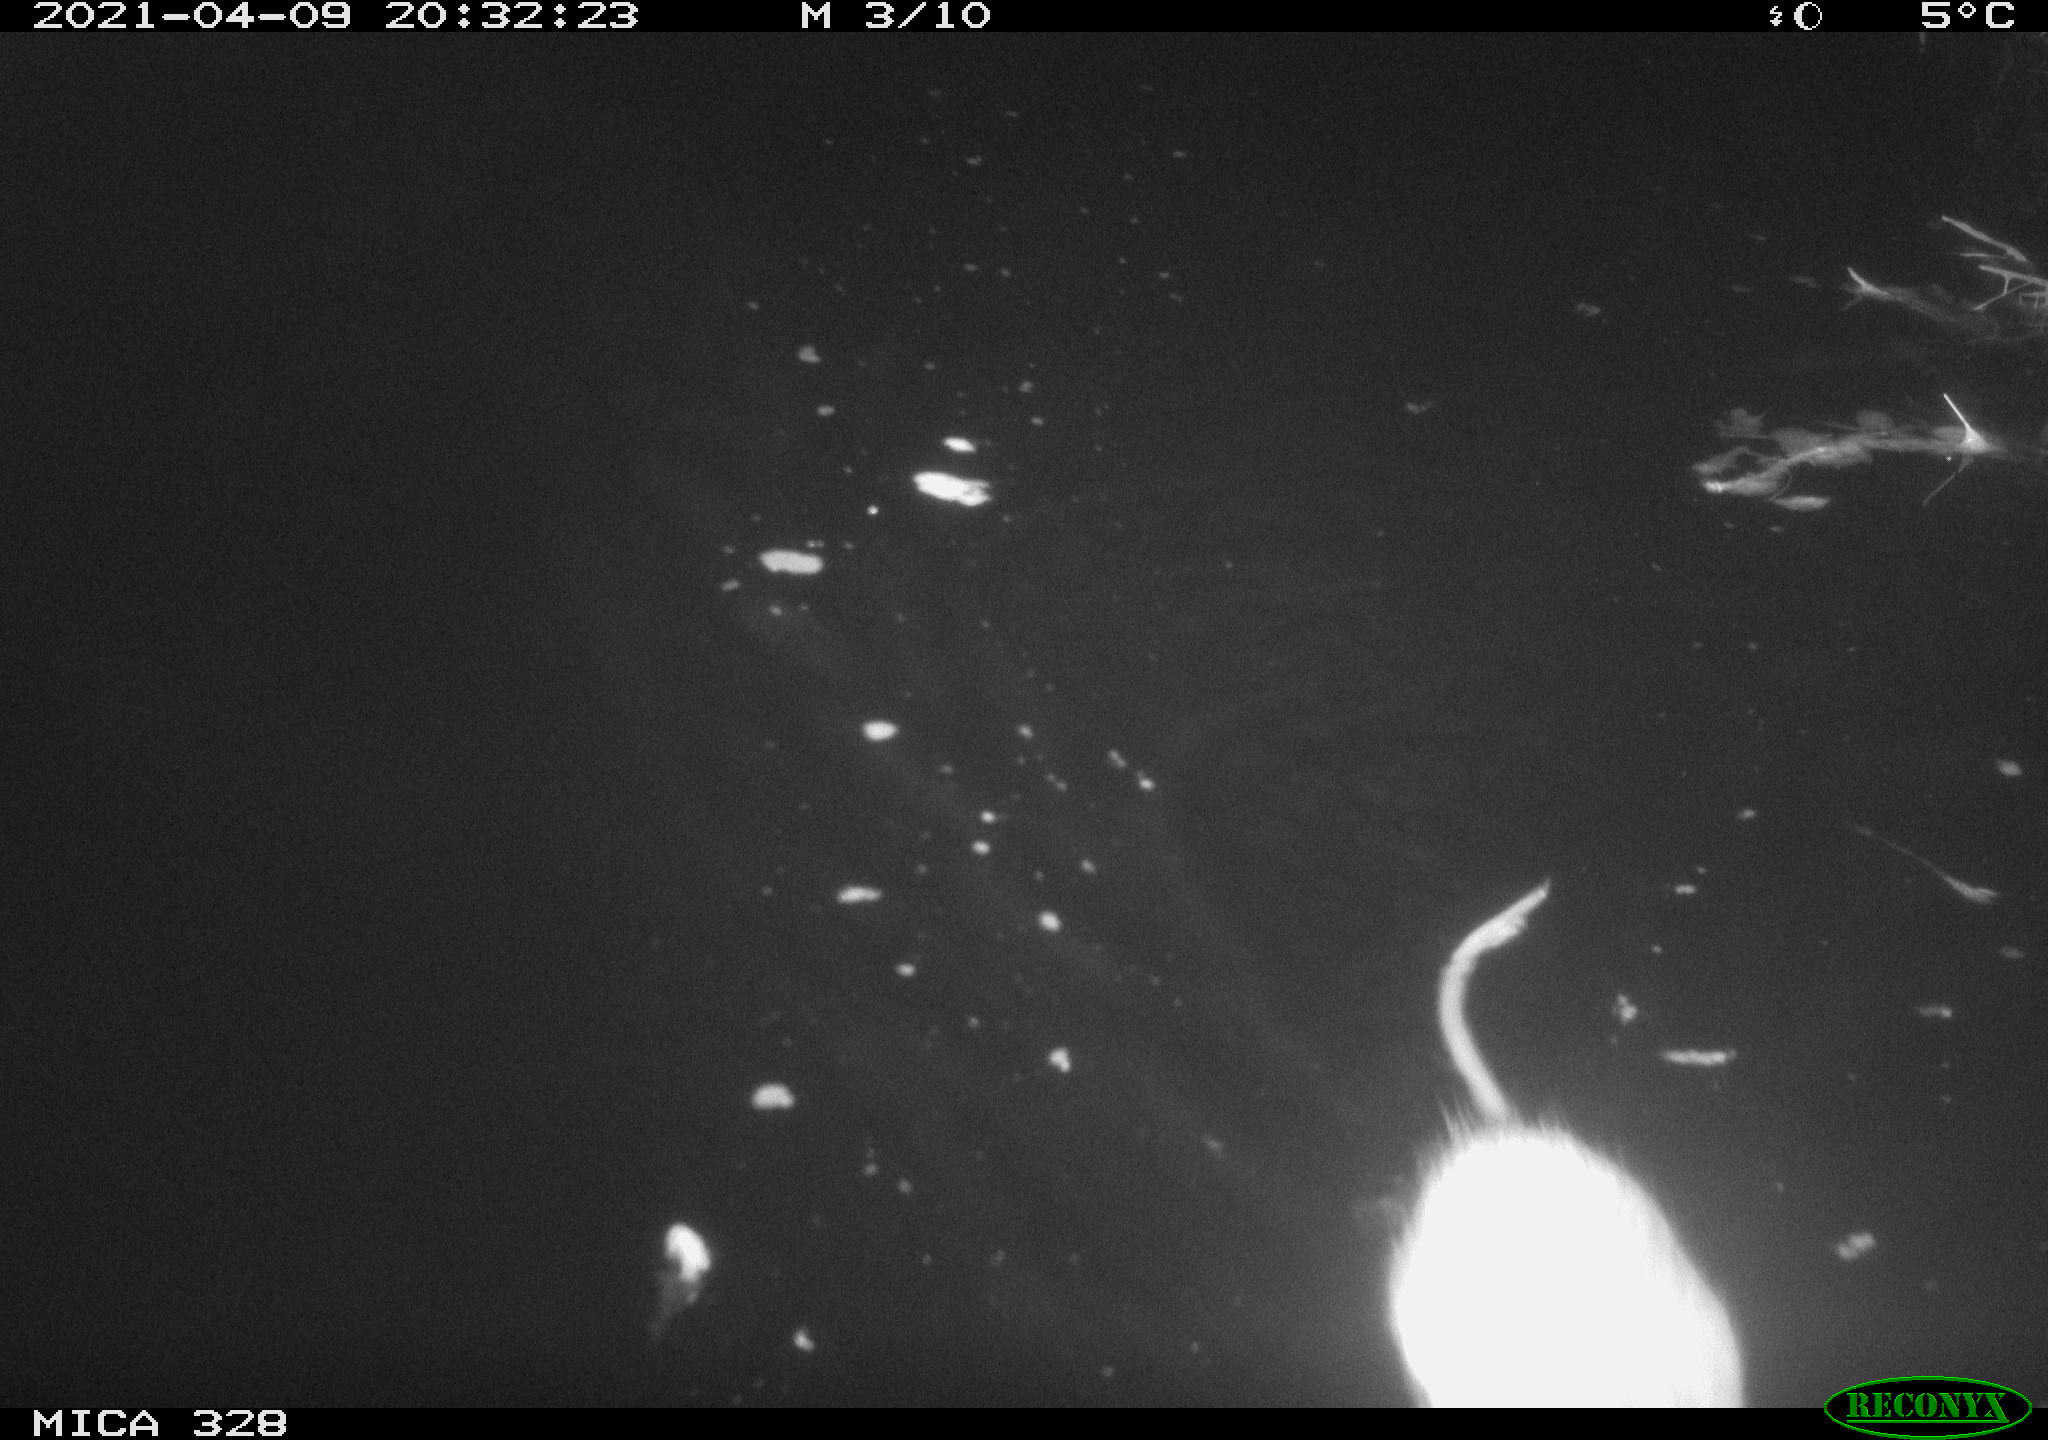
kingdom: Animalia
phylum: Chordata
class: Mammalia
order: Rodentia
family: Cricetidae
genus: Ondatra
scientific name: Ondatra zibethicus
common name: Muskrat
